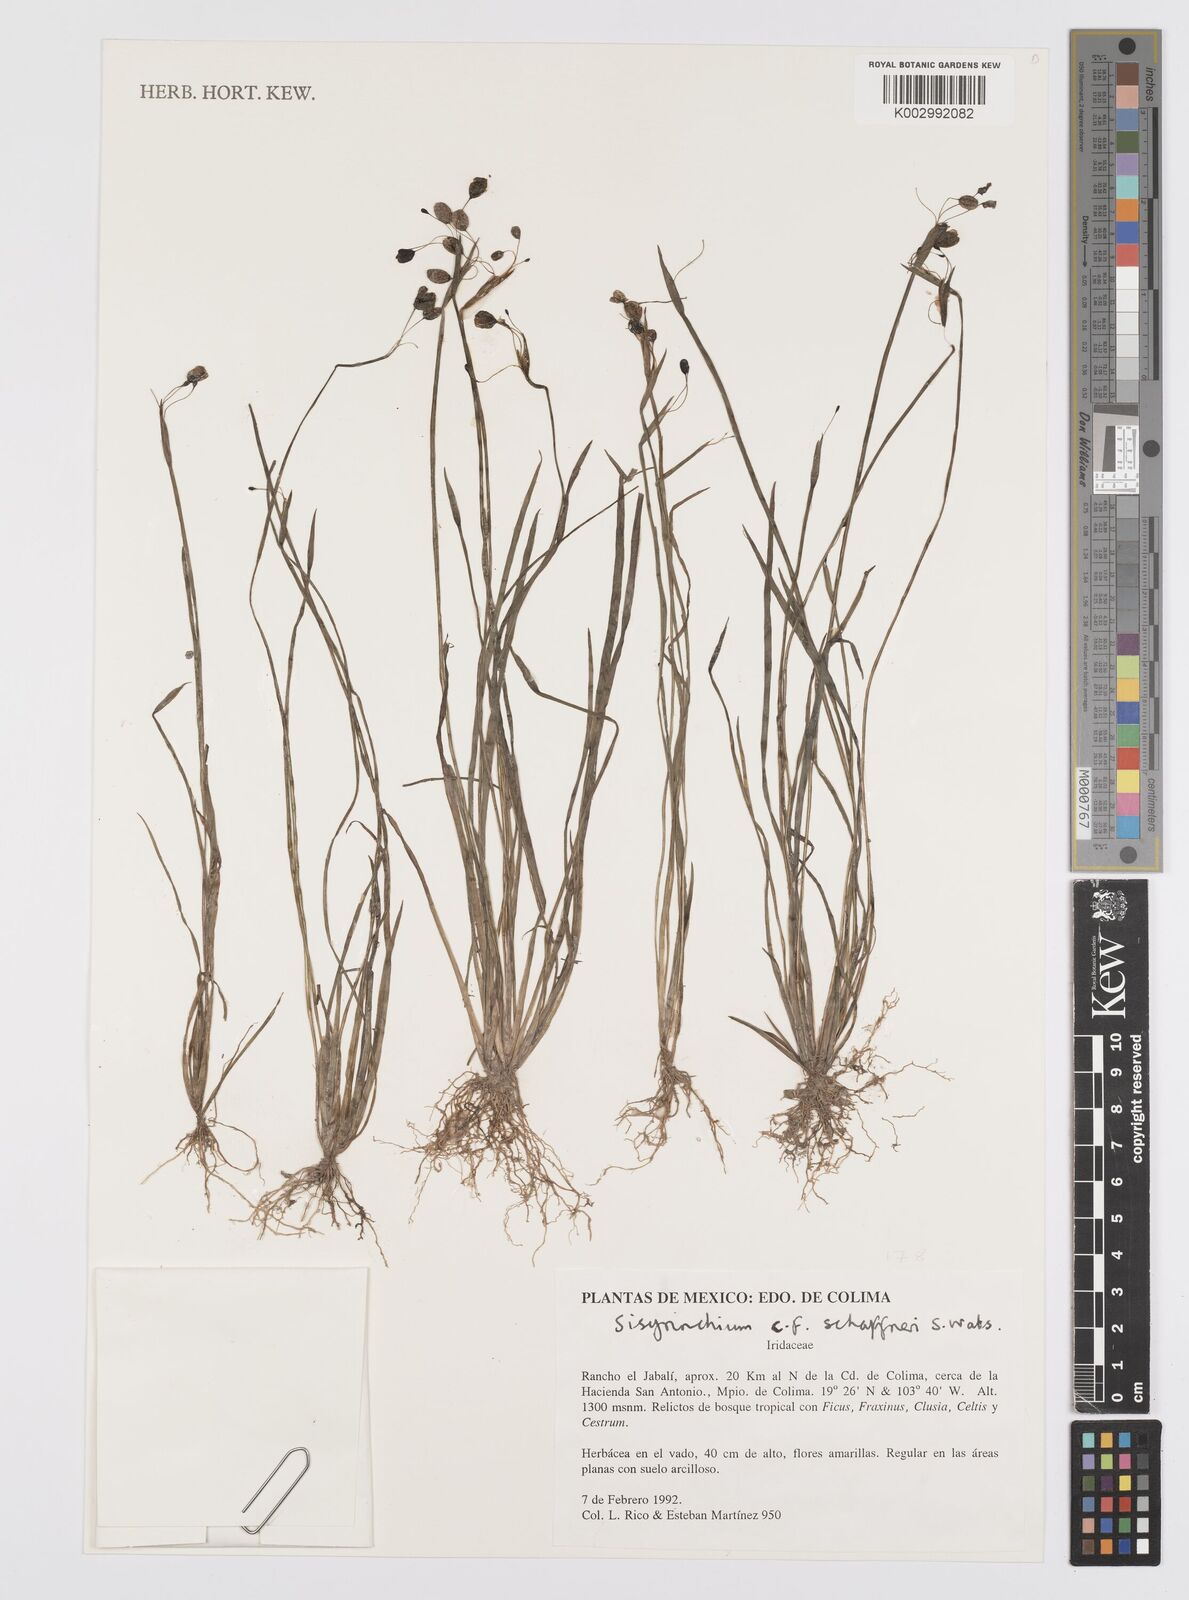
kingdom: Plantae
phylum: Tracheophyta
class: Liliopsida
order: Asparagales
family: Iridaceae
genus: Sisyrinchium
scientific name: Sisyrinchium schaffneri
